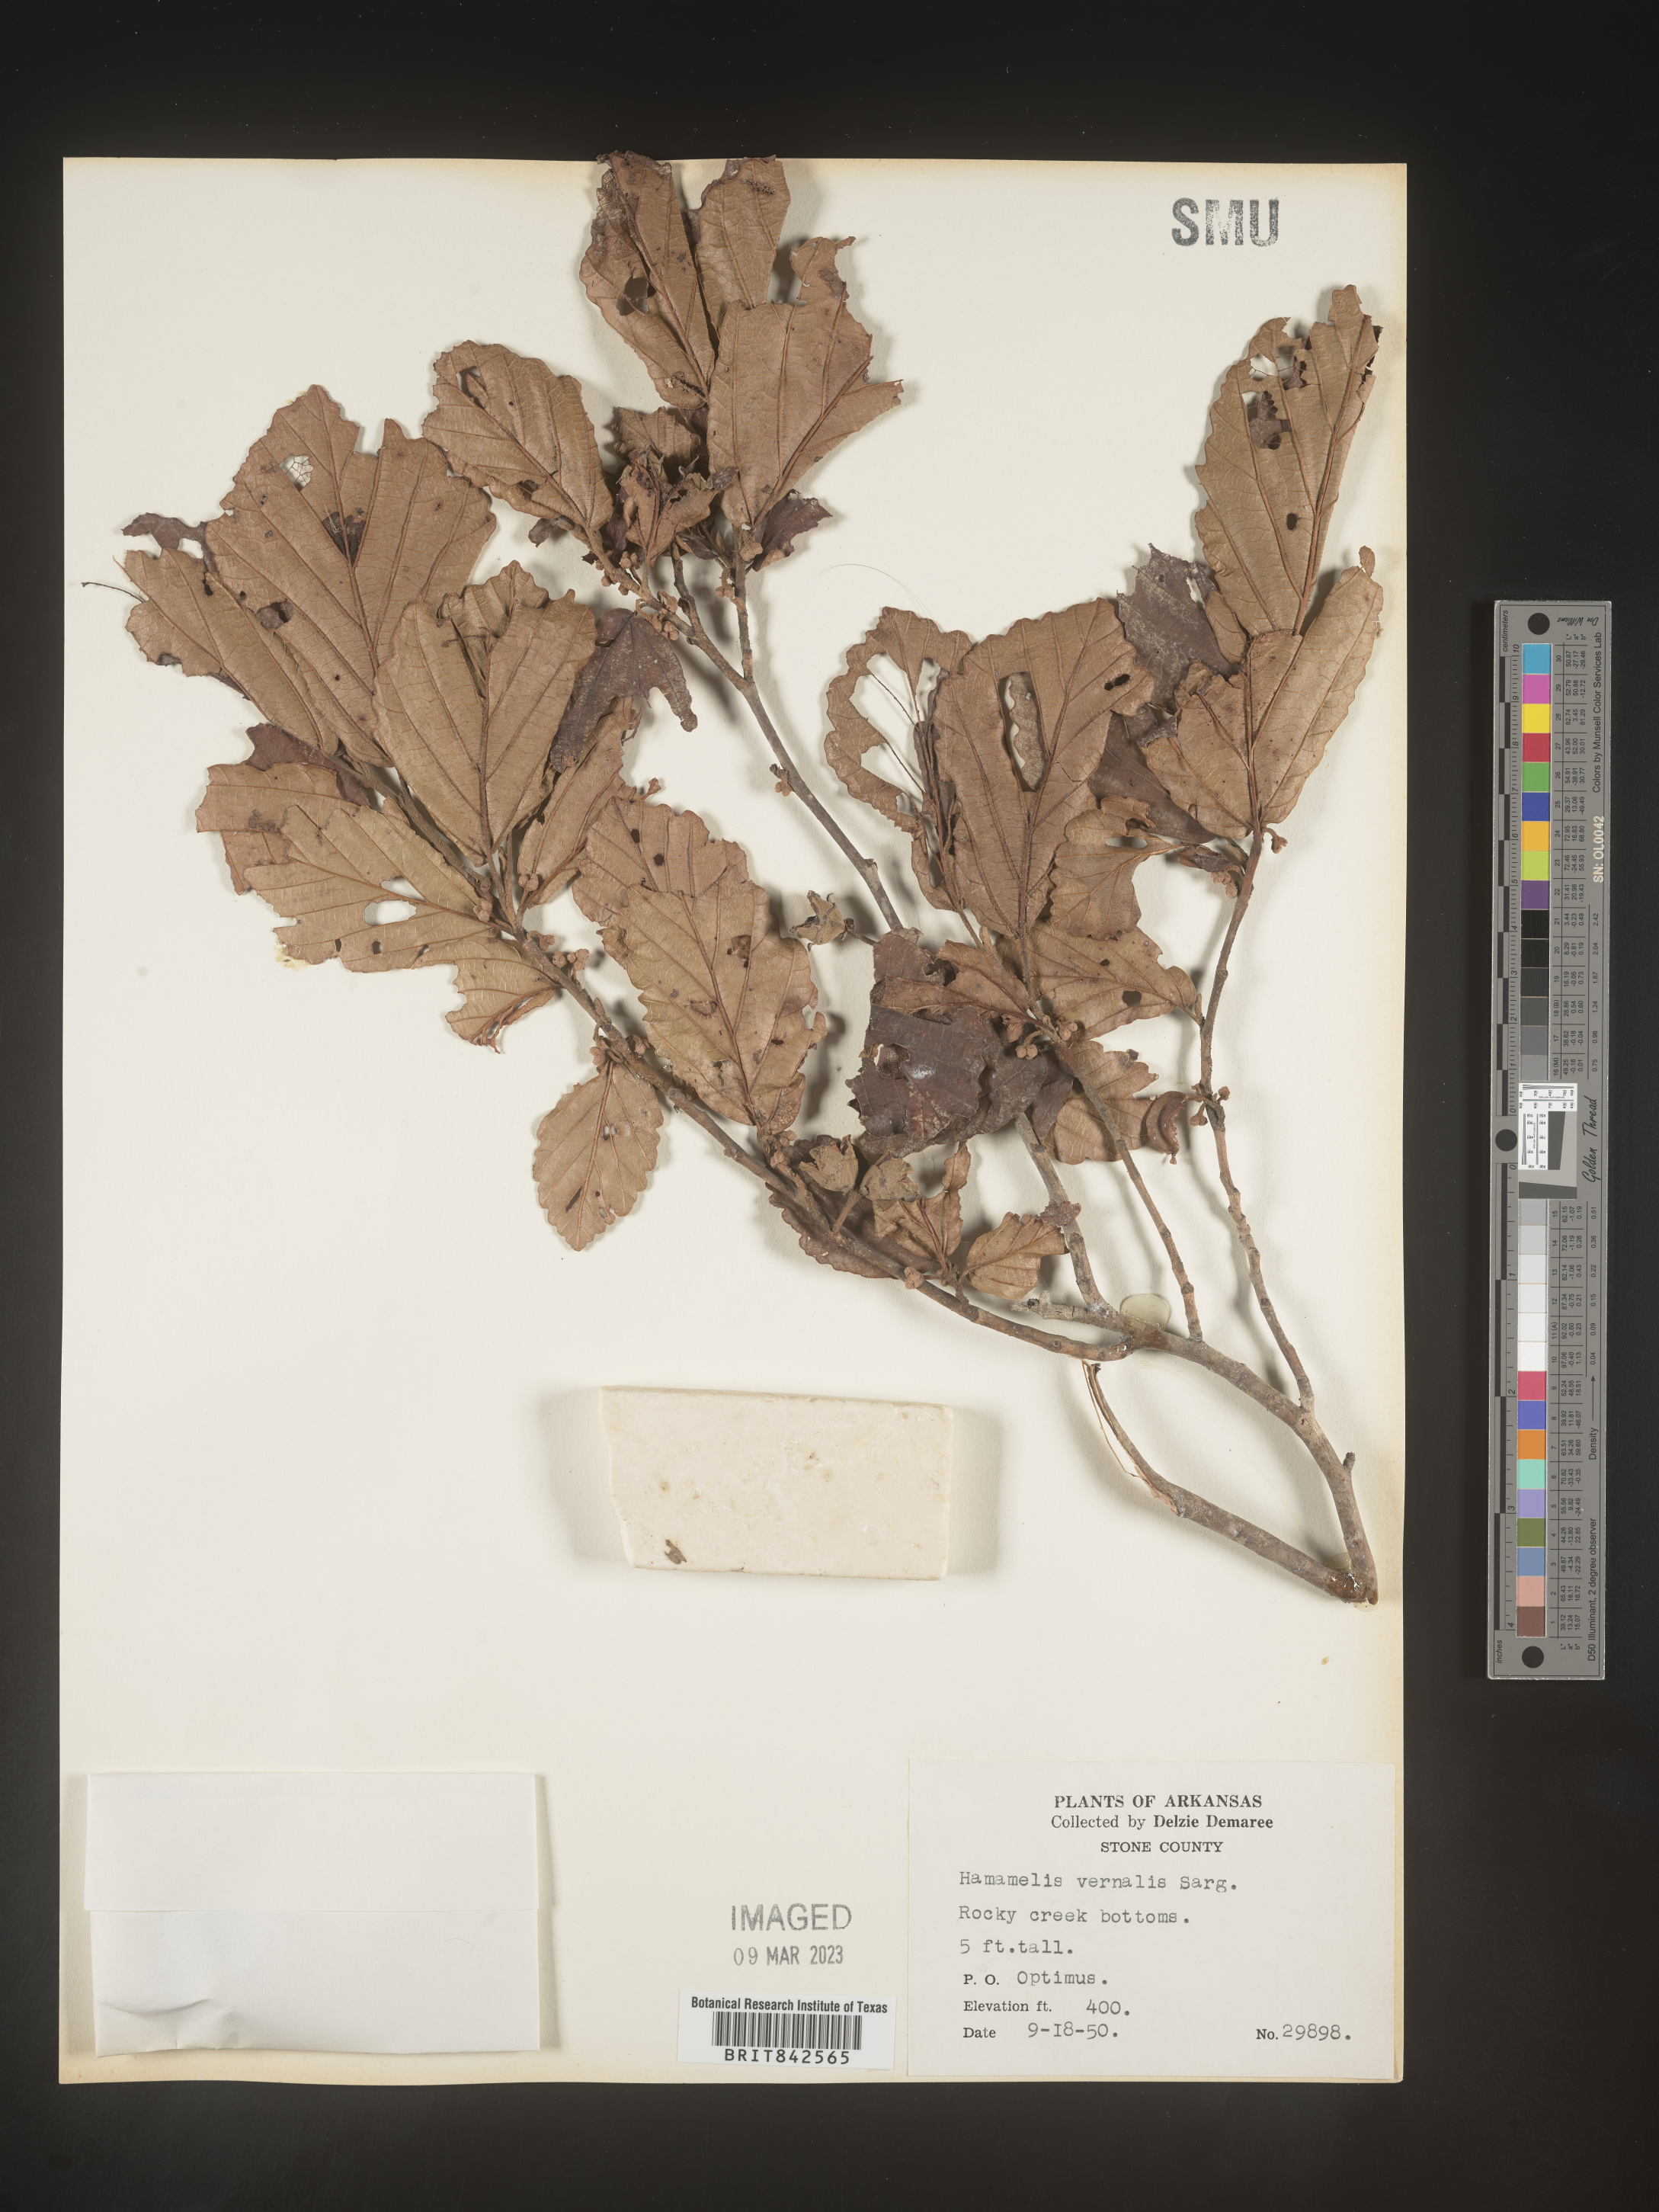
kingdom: Plantae
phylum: Tracheophyta
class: Magnoliopsida
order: Saxifragales
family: Hamamelidaceae
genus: Hamamelis
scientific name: Hamamelis vernalis
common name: Ozark witch-hazel
